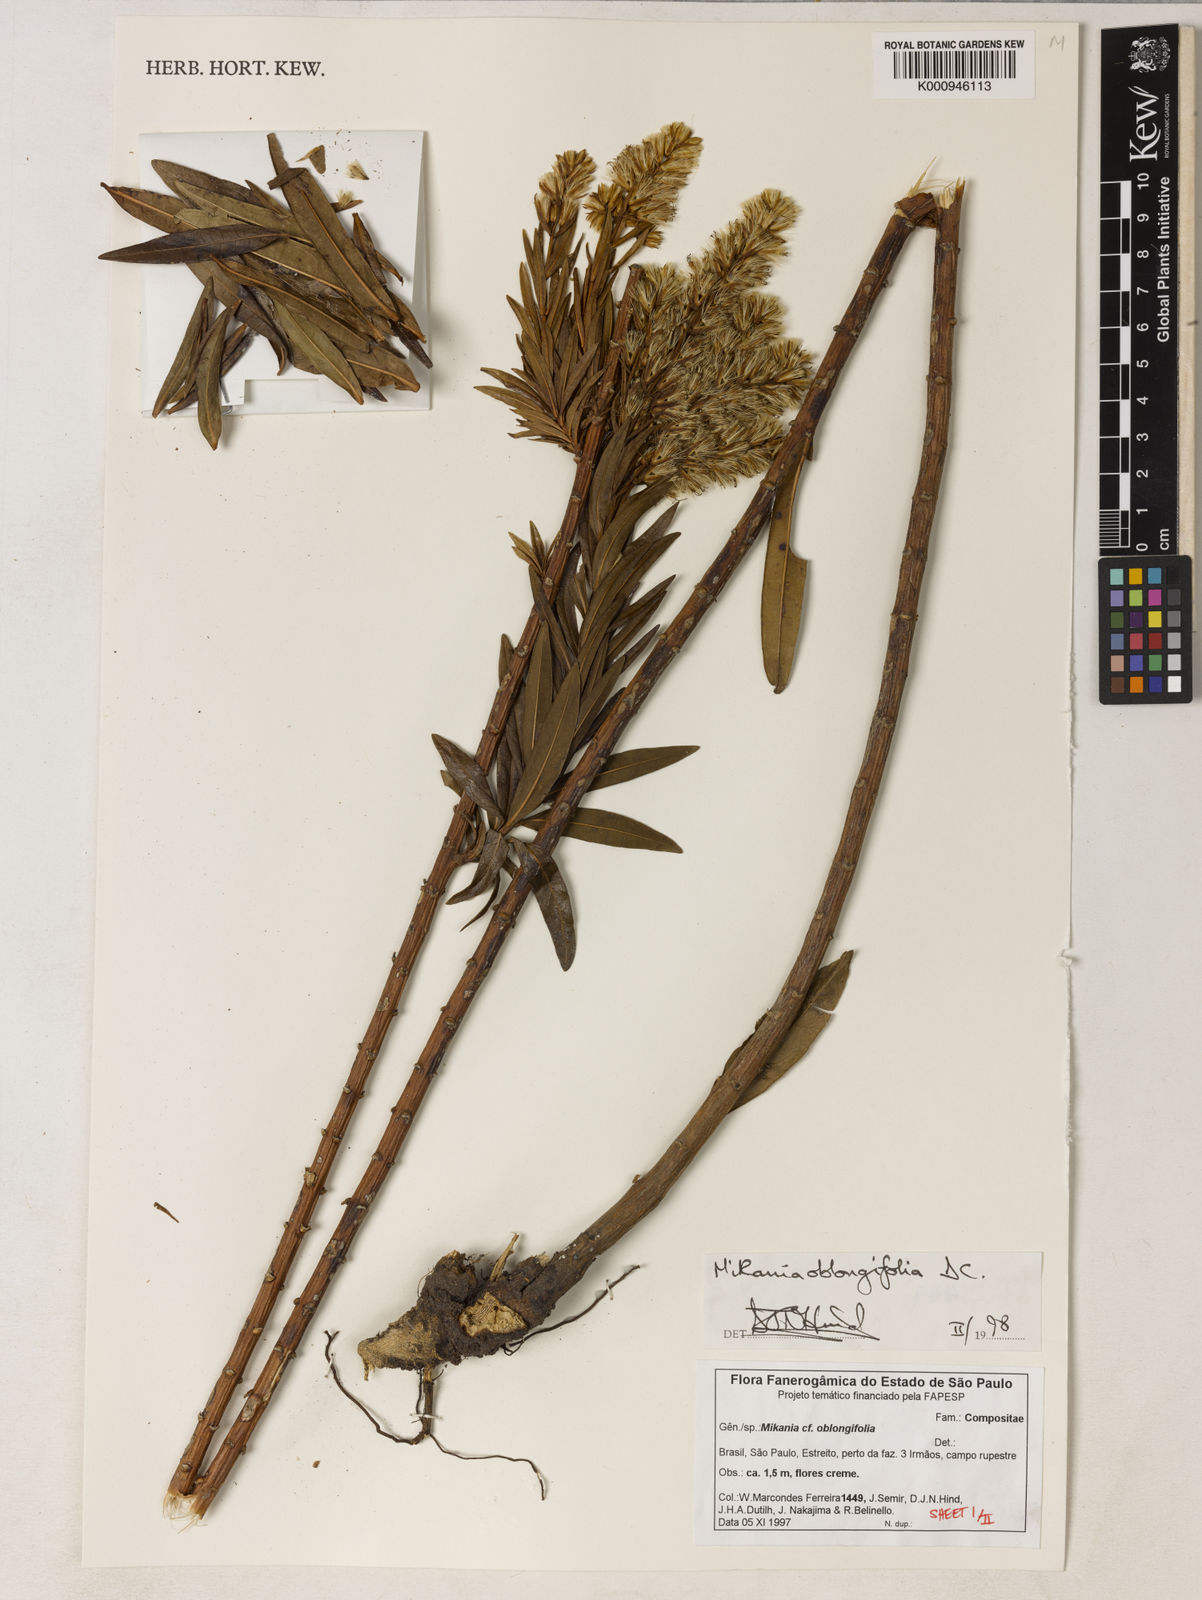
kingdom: Plantae
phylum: Tracheophyta
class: Magnoliopsida
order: Asterales
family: Asteraceae
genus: Mikania
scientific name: Mikania oblongifolia
